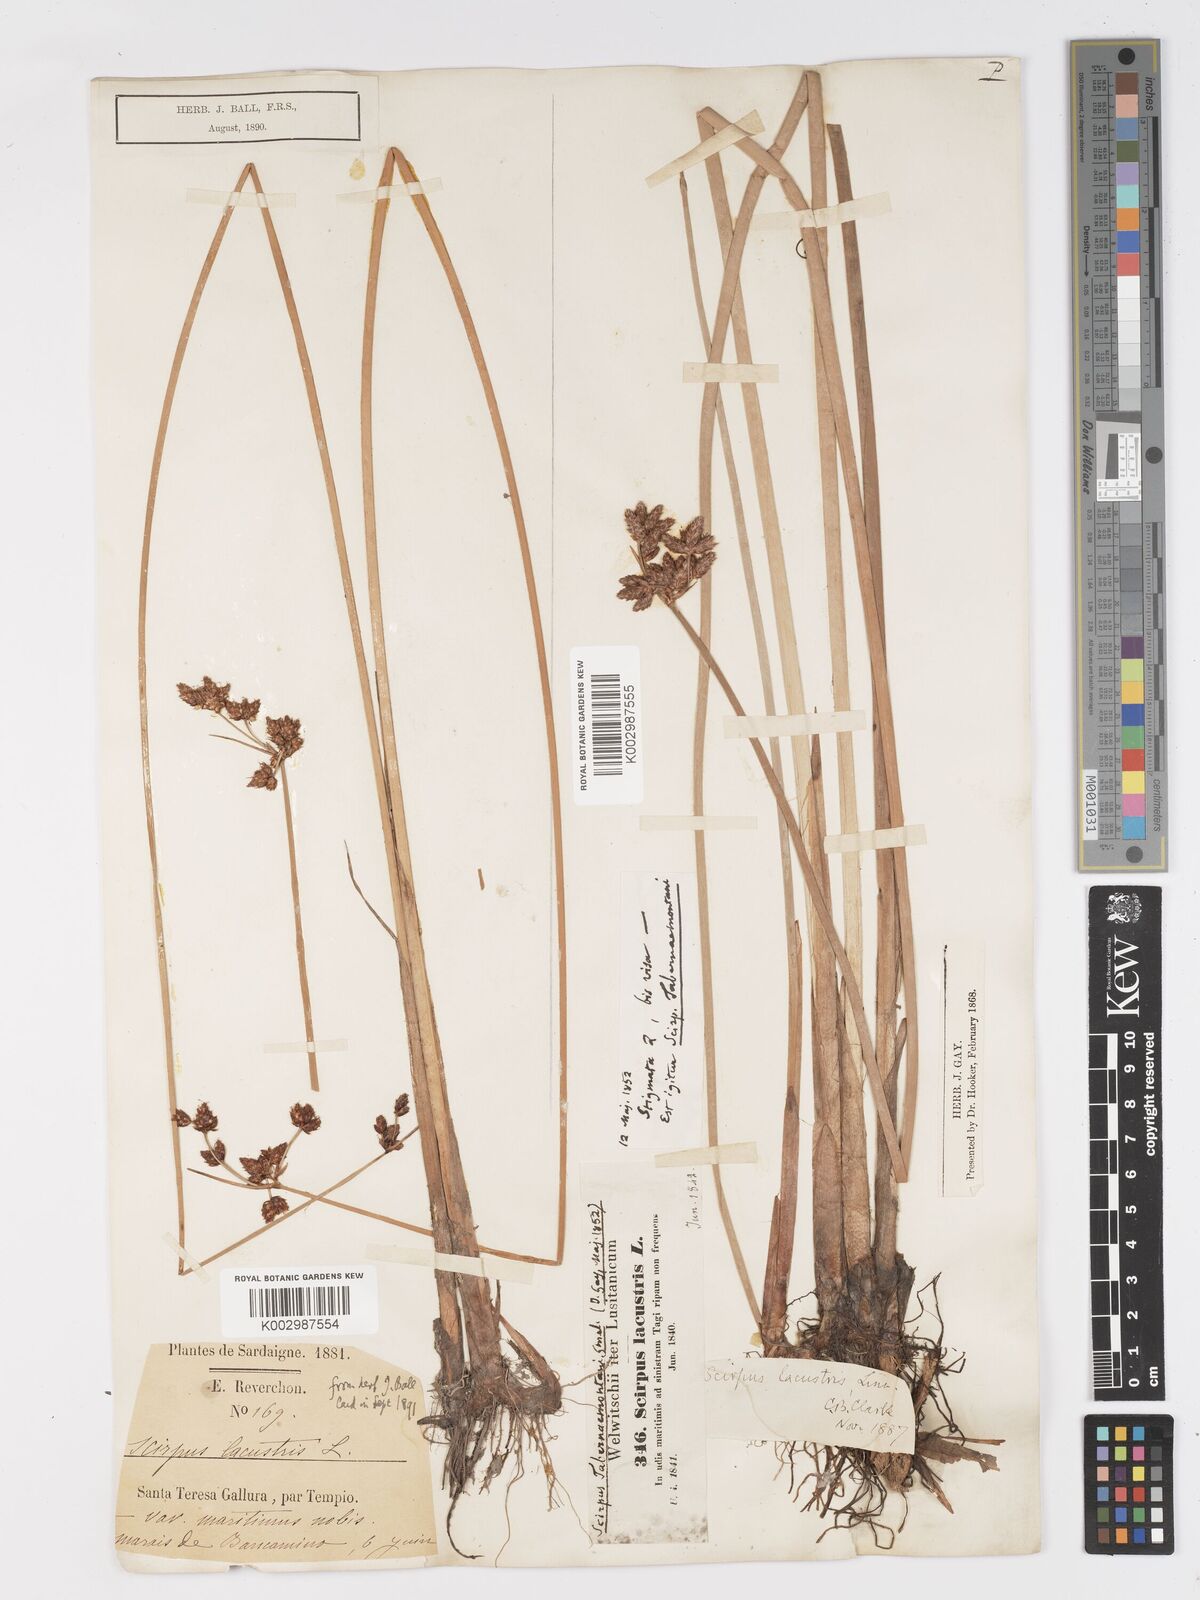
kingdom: Plantae
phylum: Tracheophyta
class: Liliopsida
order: Poales
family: Cyperaceae
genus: Schoenoplectus
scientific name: Schoenoplectus lacustris
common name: Common club-rush
